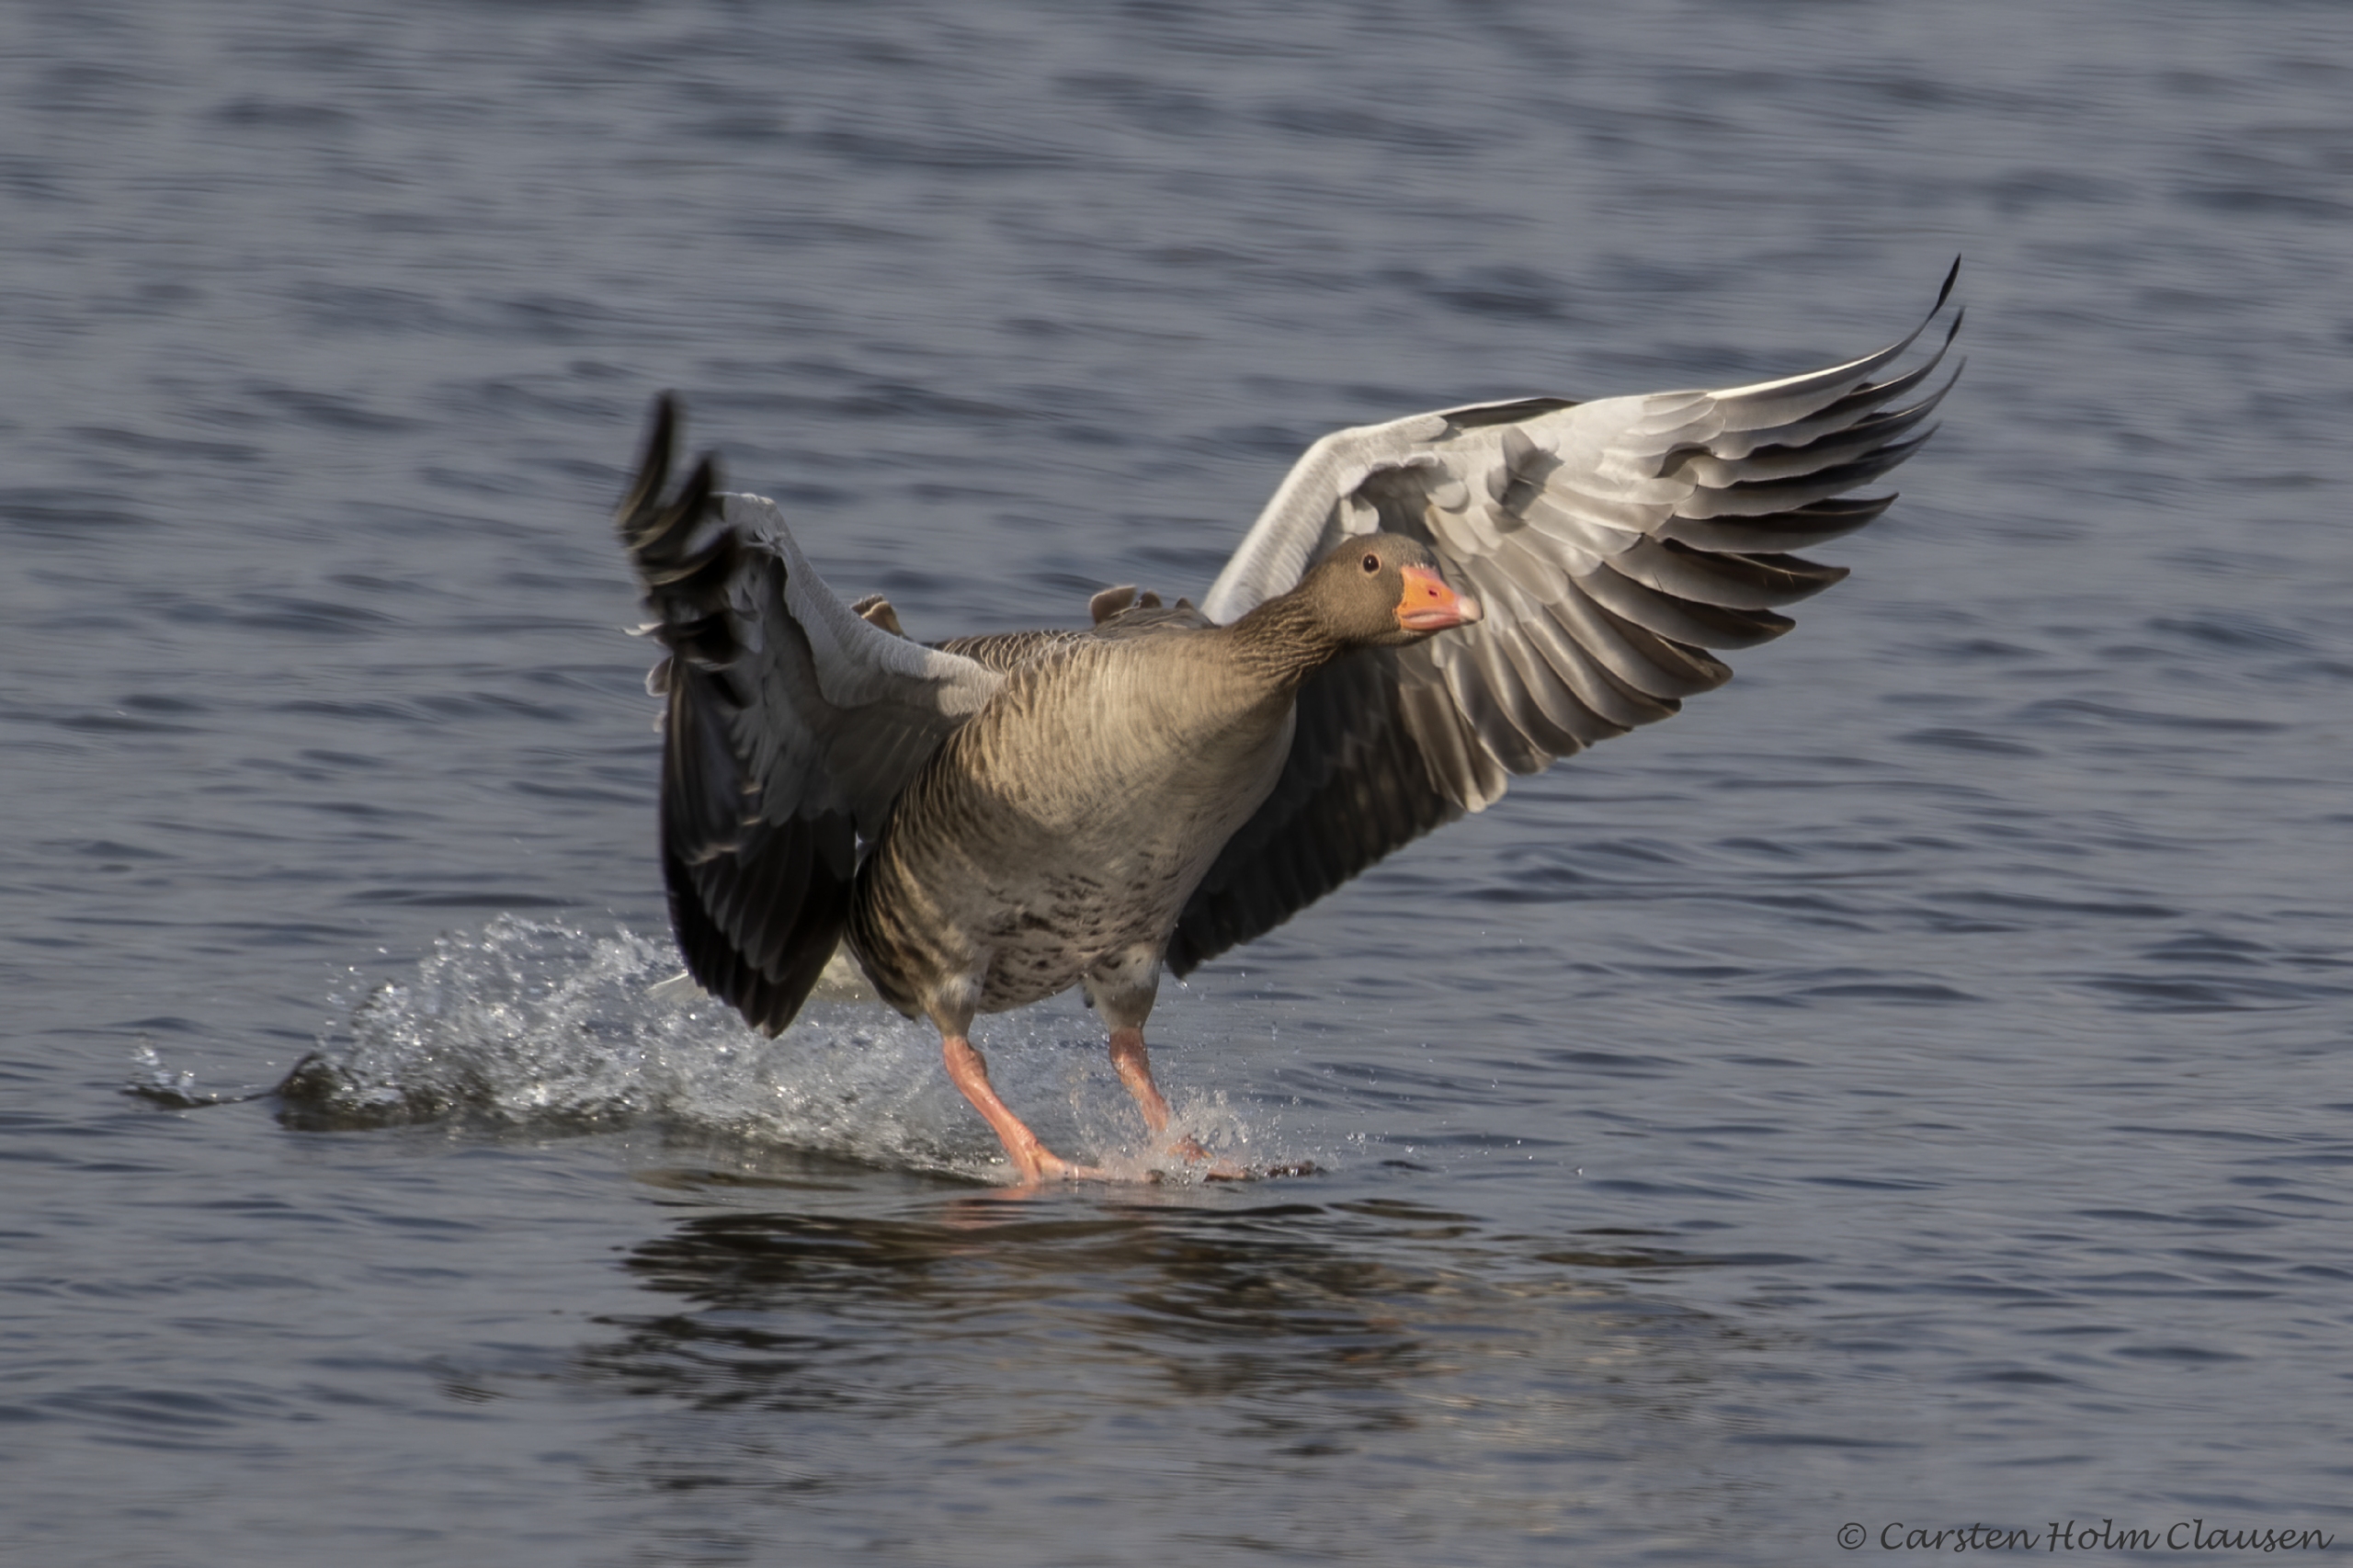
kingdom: Animalia
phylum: Chordata
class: Aves
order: Anseriformes
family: Anatidae
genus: Anser
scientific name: Anser anser
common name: Grågås
